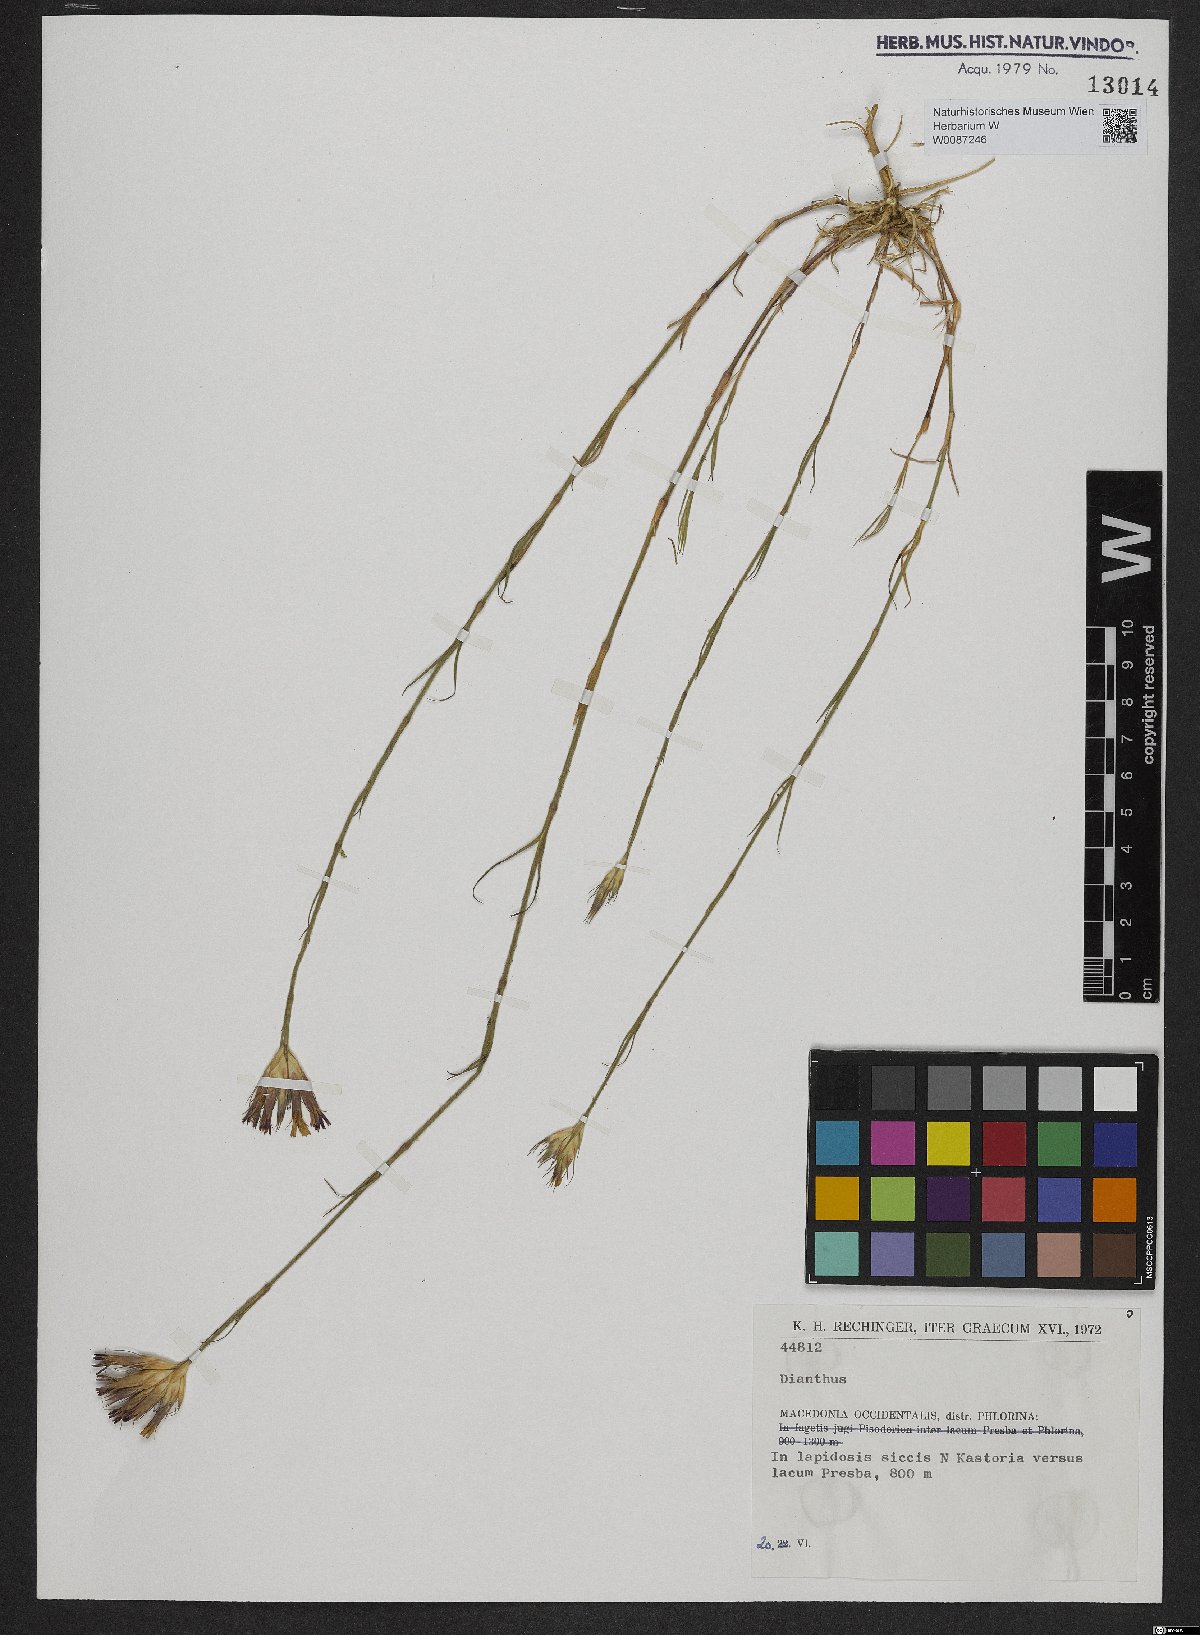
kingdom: Plantae
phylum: Tracheophyta
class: Magnoliopsida
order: Caryophyllales
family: Caryophyllaceae
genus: Dianthus
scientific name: Dianthus
